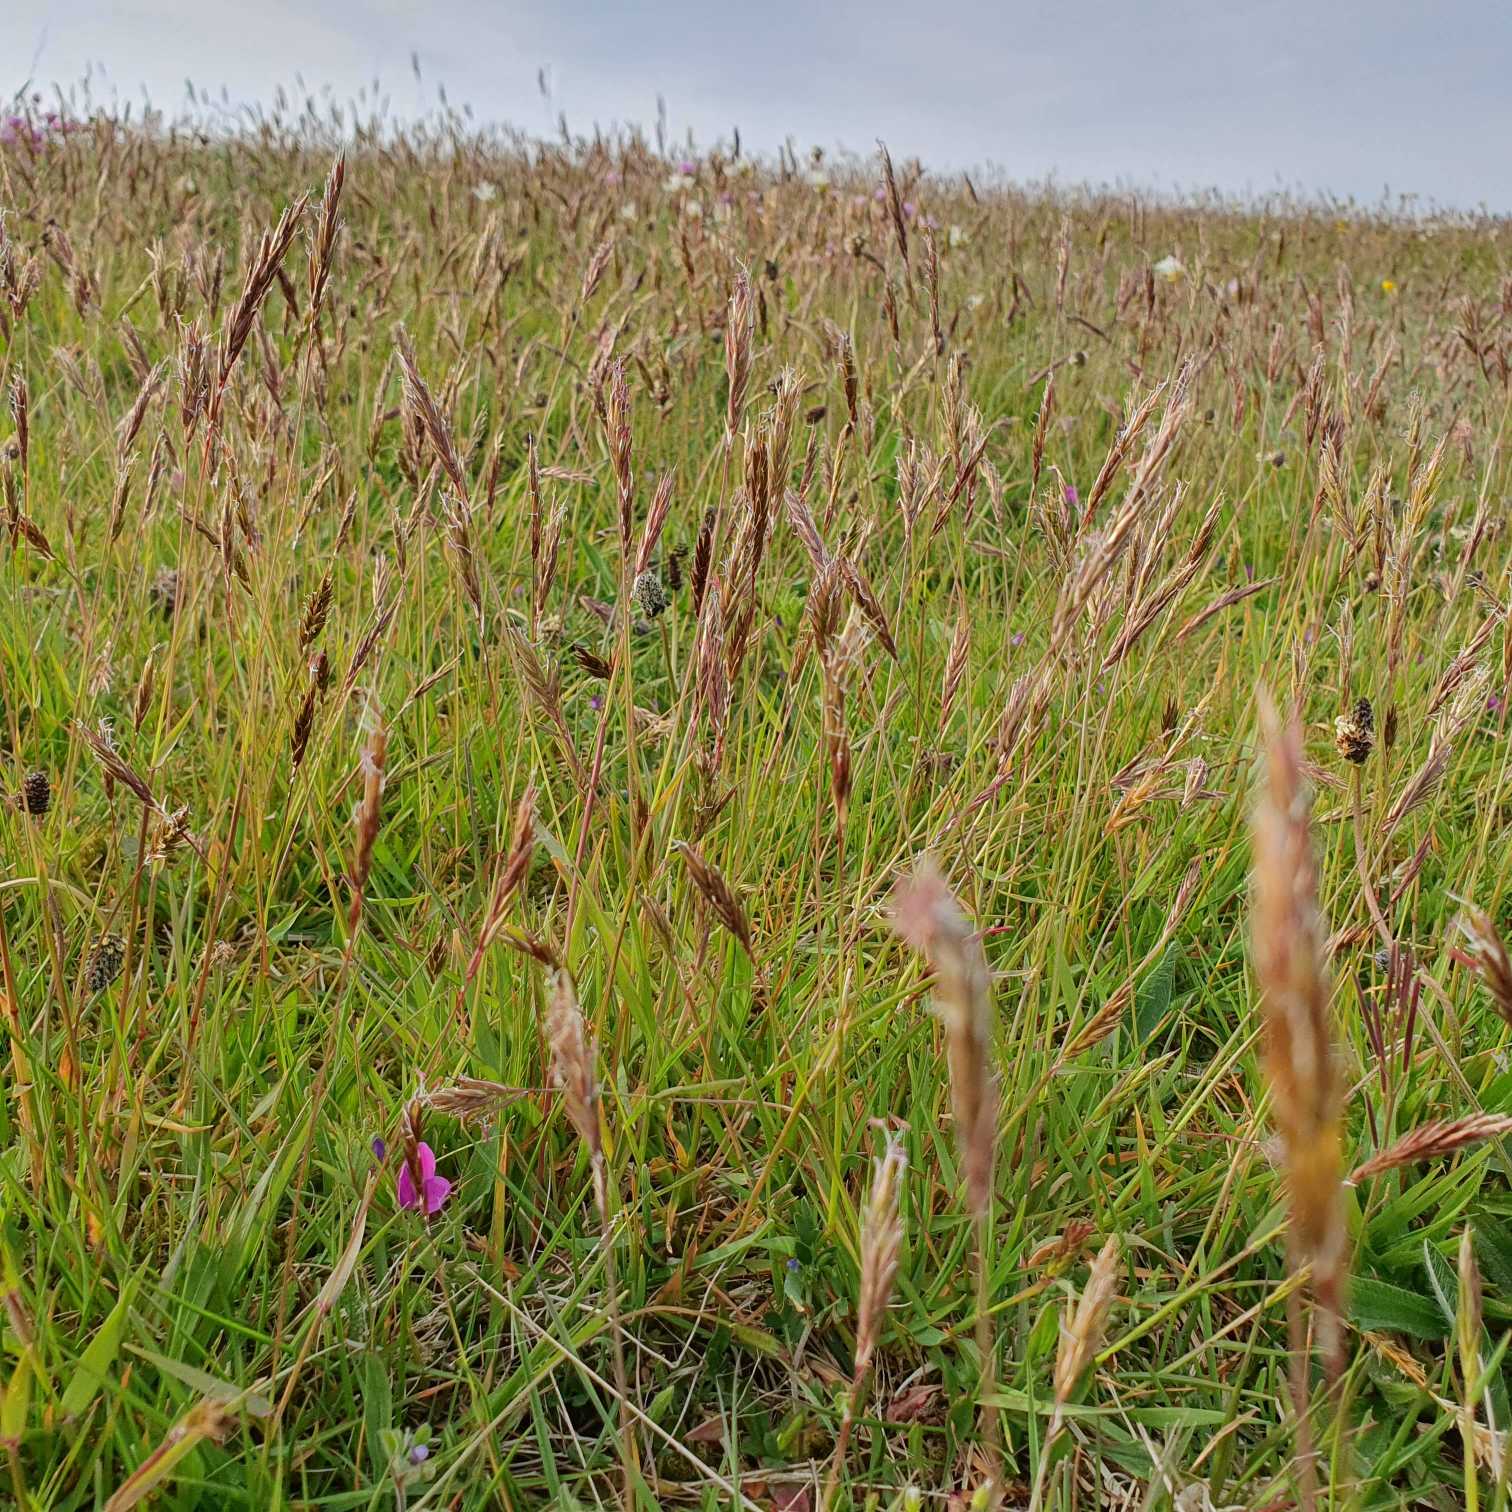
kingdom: Plantae
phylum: Tracheophyta
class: Liliopsida
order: Poales
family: Poaceae
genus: Anthoxanthum
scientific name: Anthoxanthum odoratum
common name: Vellugtende gulaks
